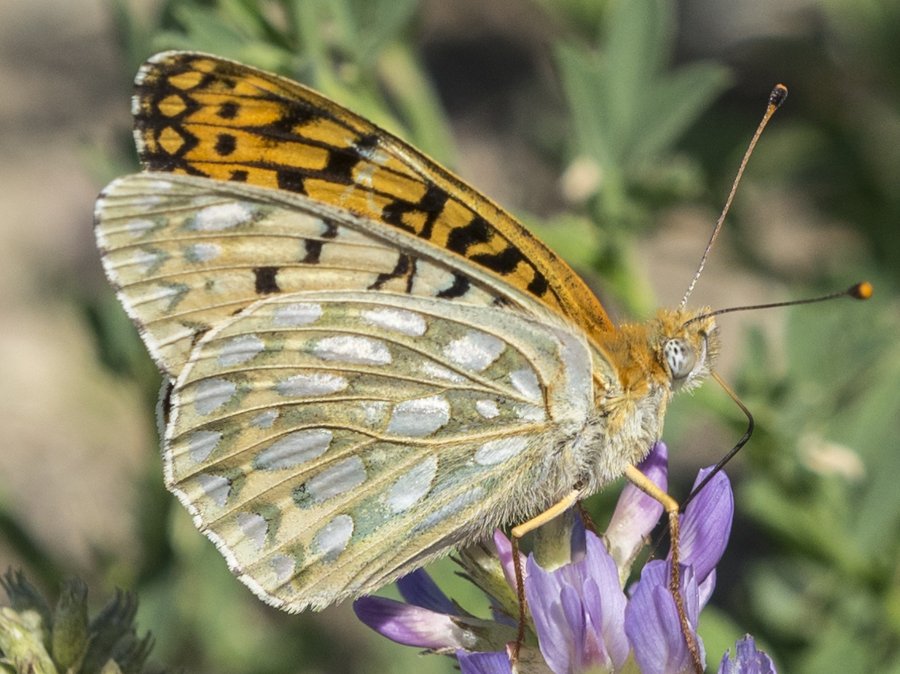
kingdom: Animalia
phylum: Arthropoda
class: Insecta
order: Lepidoptera
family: Nymphalidae
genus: Speyeria
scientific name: Speyeria callippe
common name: Callippe Fritillary
